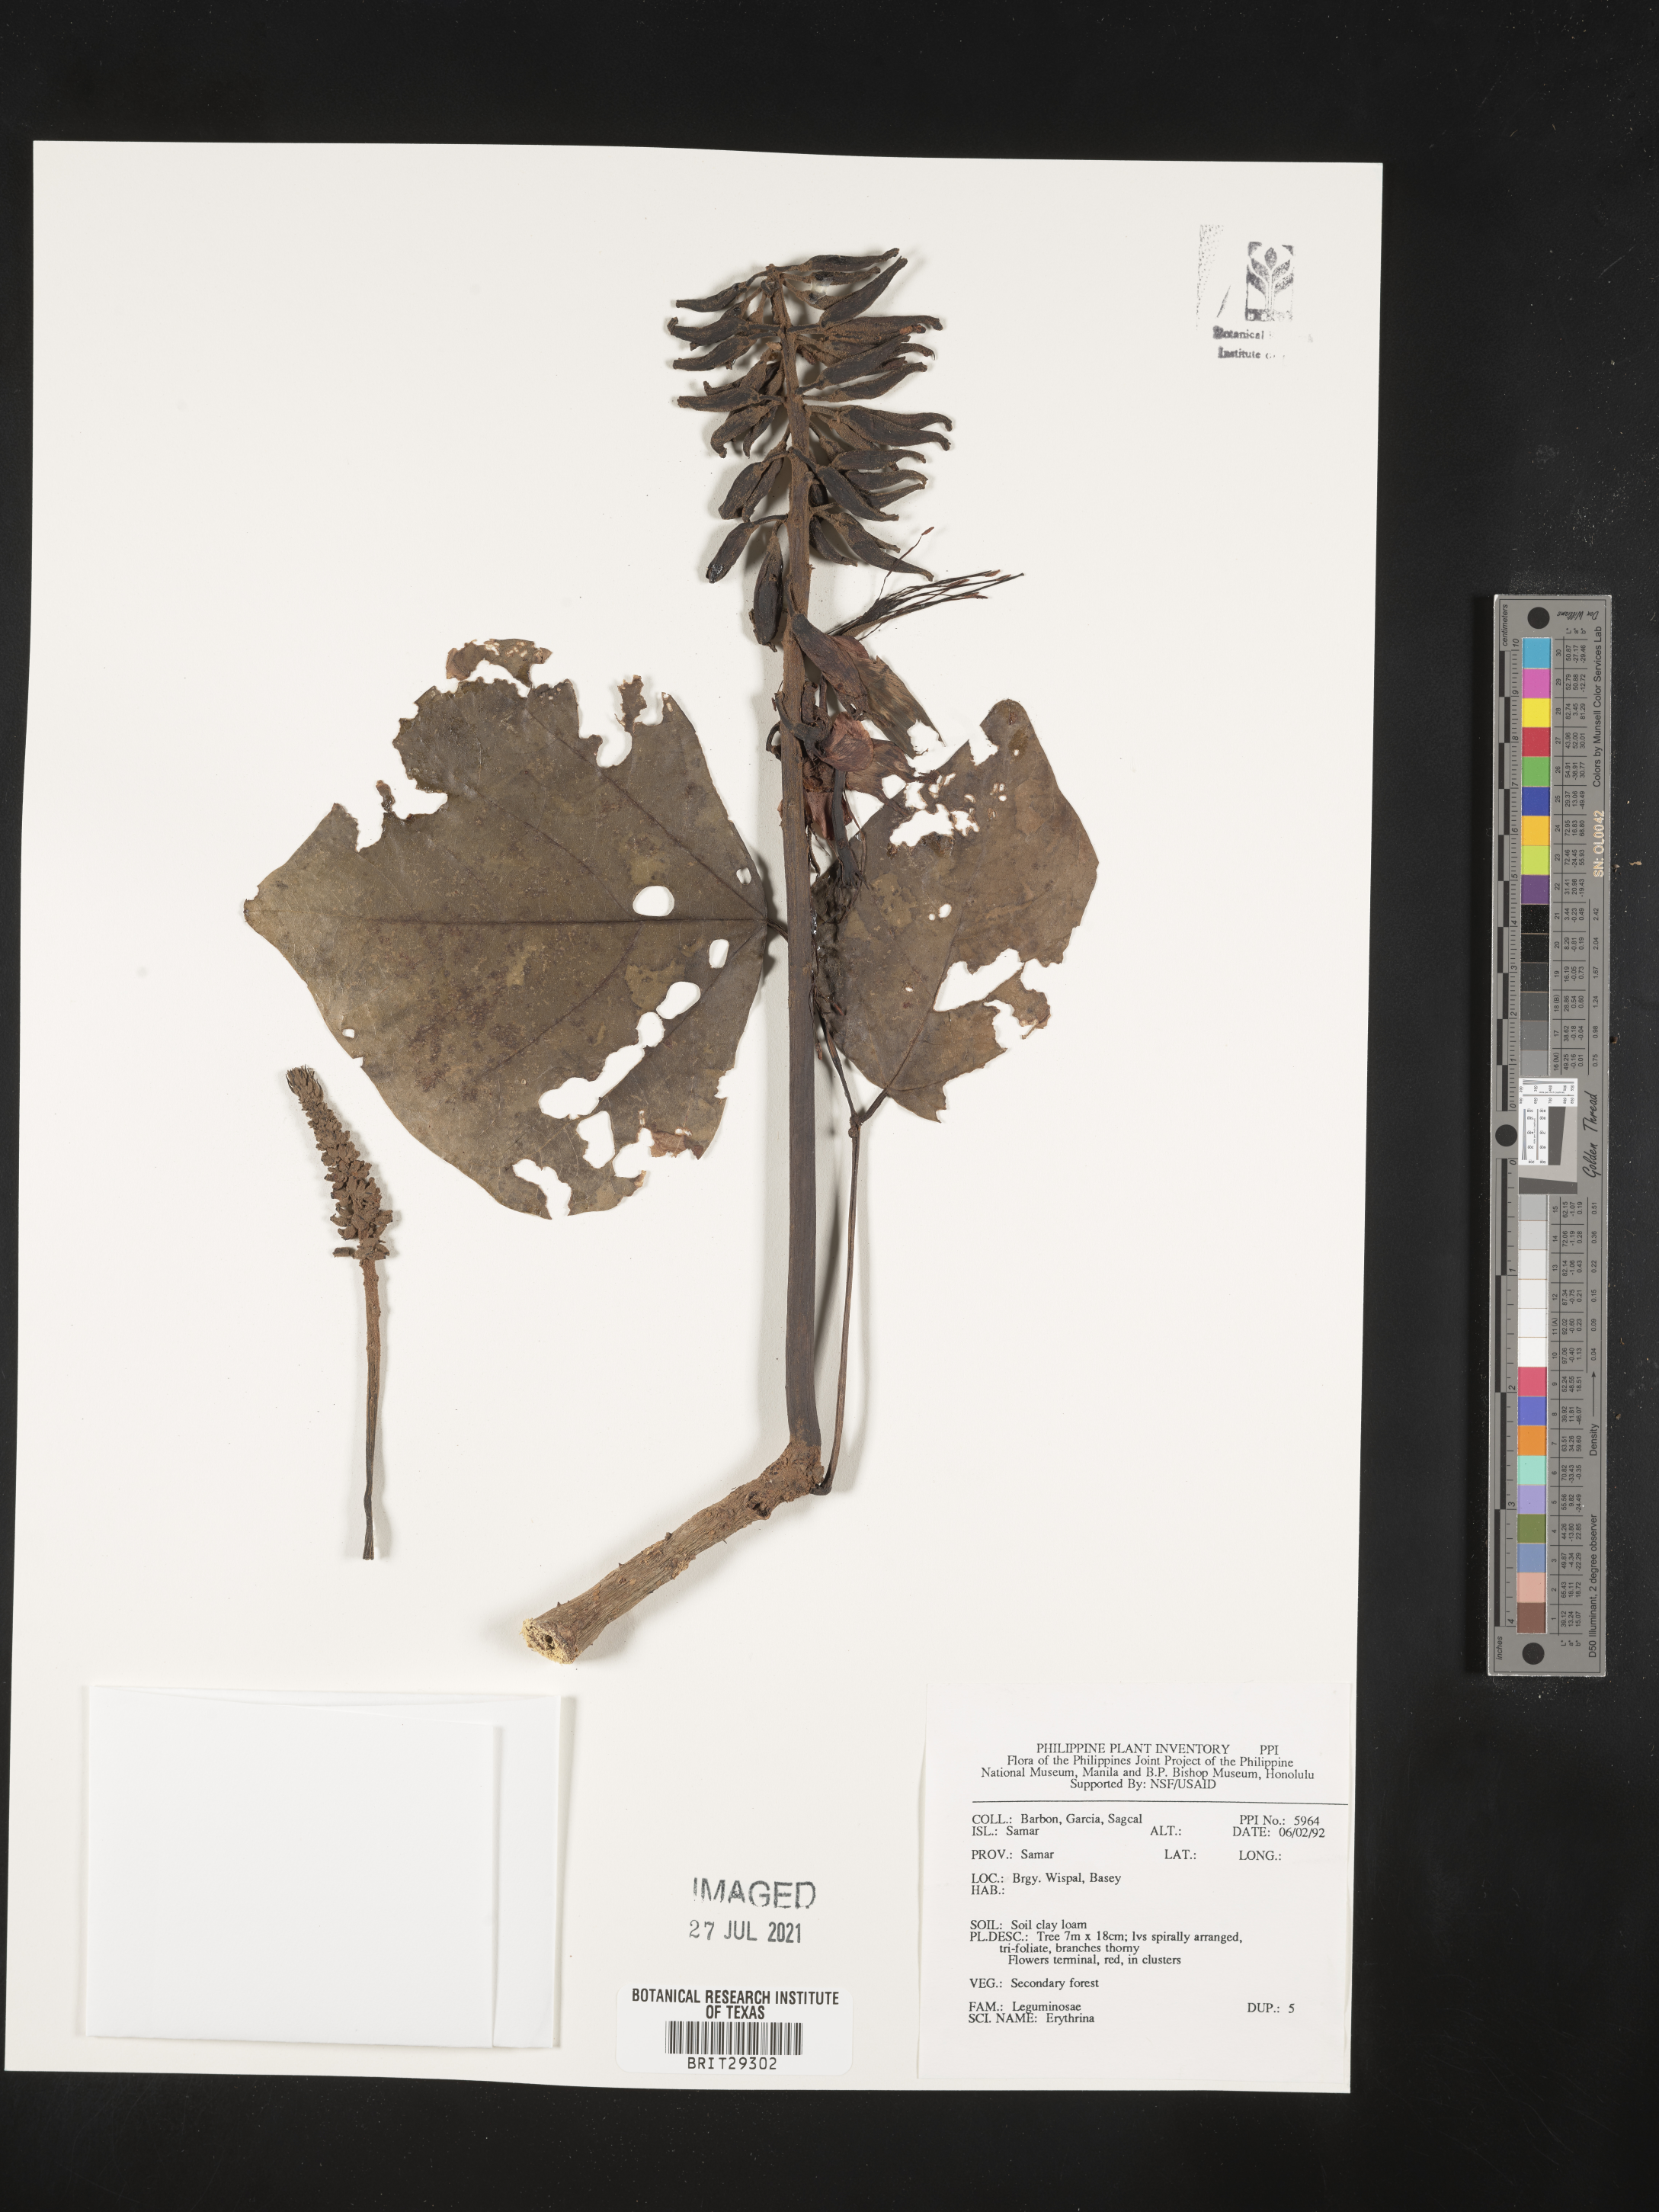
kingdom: Plantae
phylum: Tracheophyta
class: Magnoliopsida
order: Fabales
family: Fabaceae
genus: Erythrina
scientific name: Erythrina
